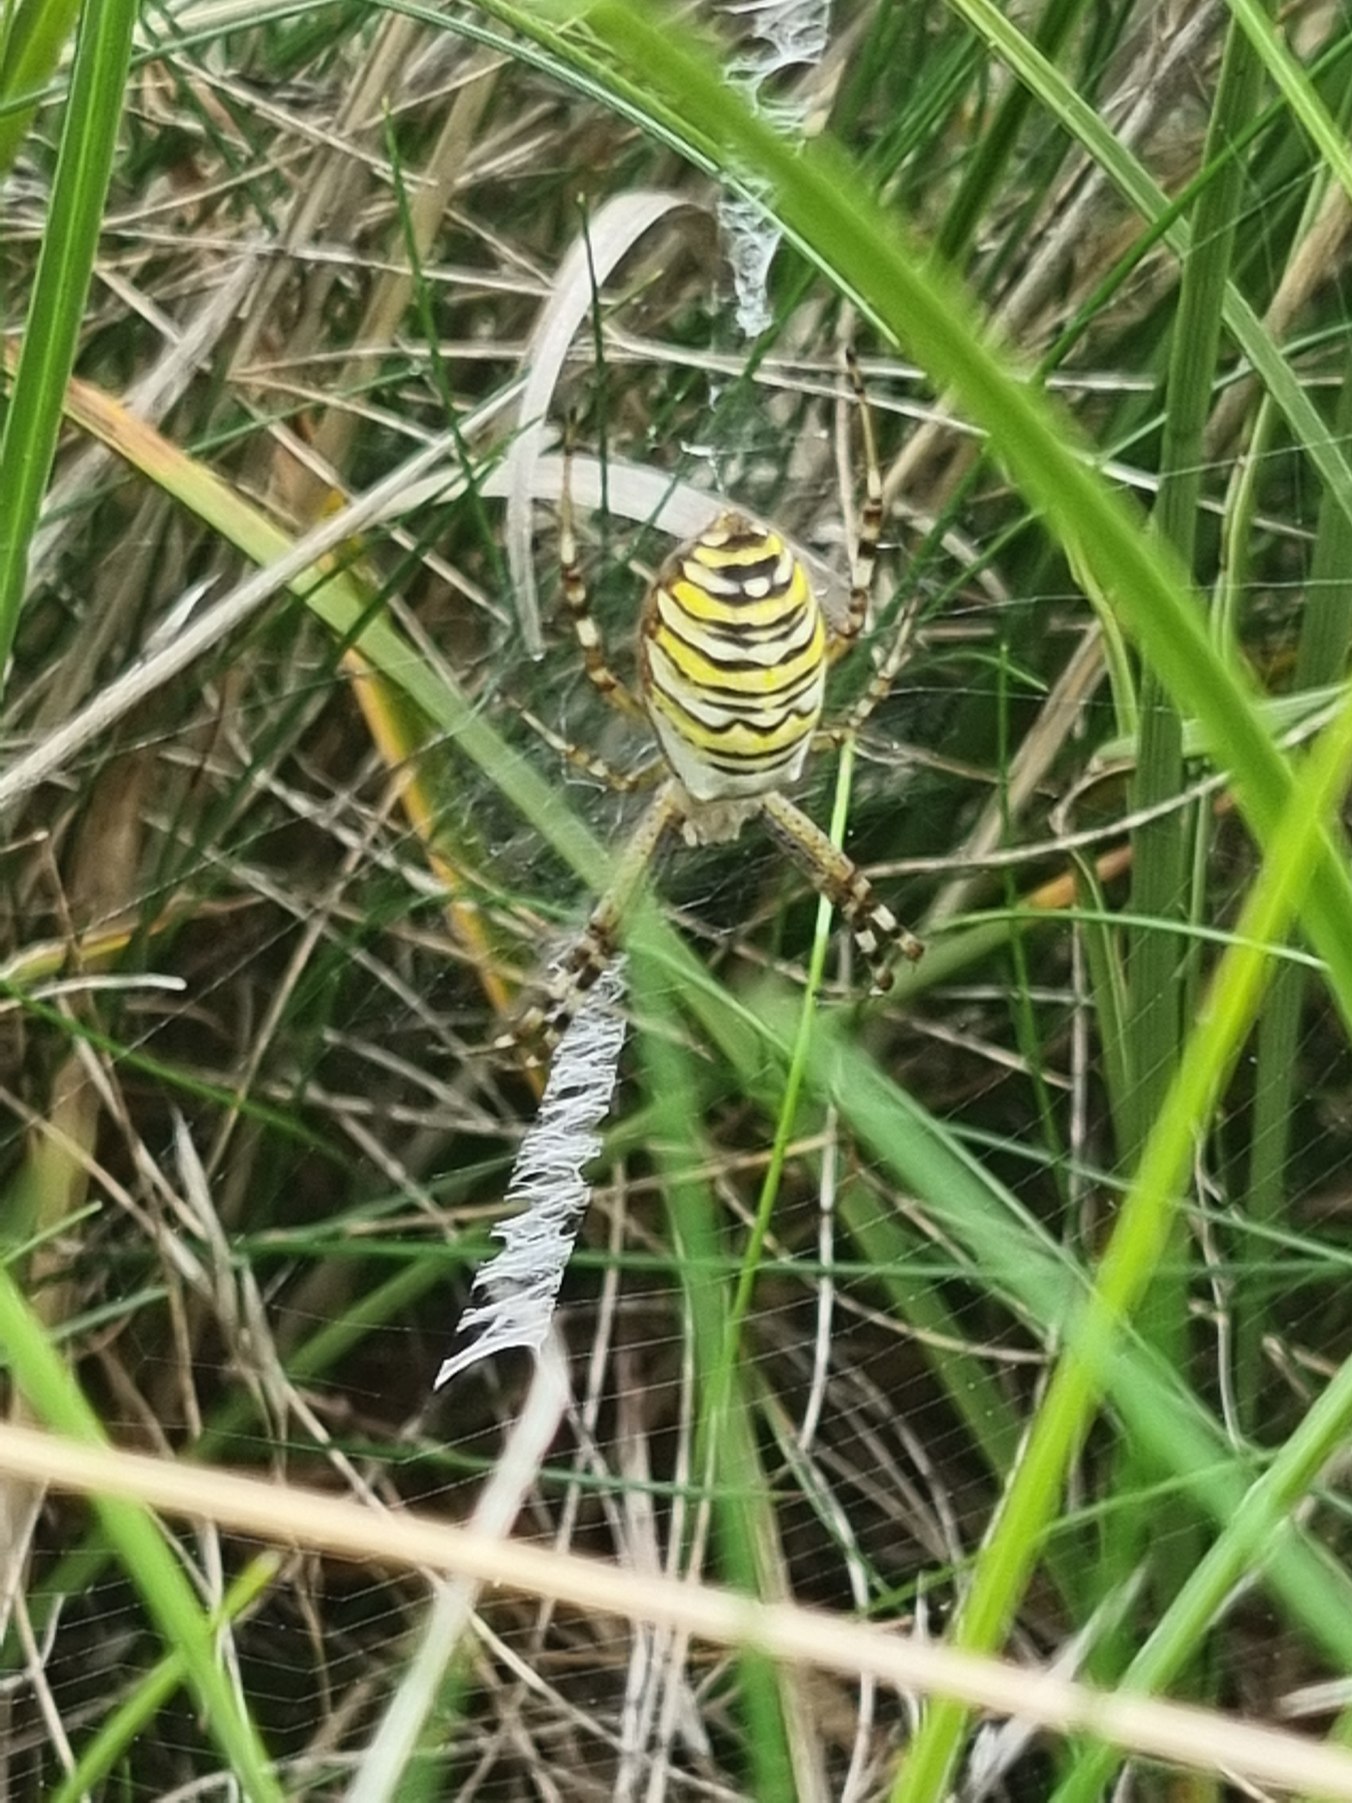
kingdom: Animalia
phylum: Arthropoda
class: Arachnida
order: Araneae
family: Araneidae
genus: Argiope
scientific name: Argiope bruennichi
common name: Hvepseedderkop
